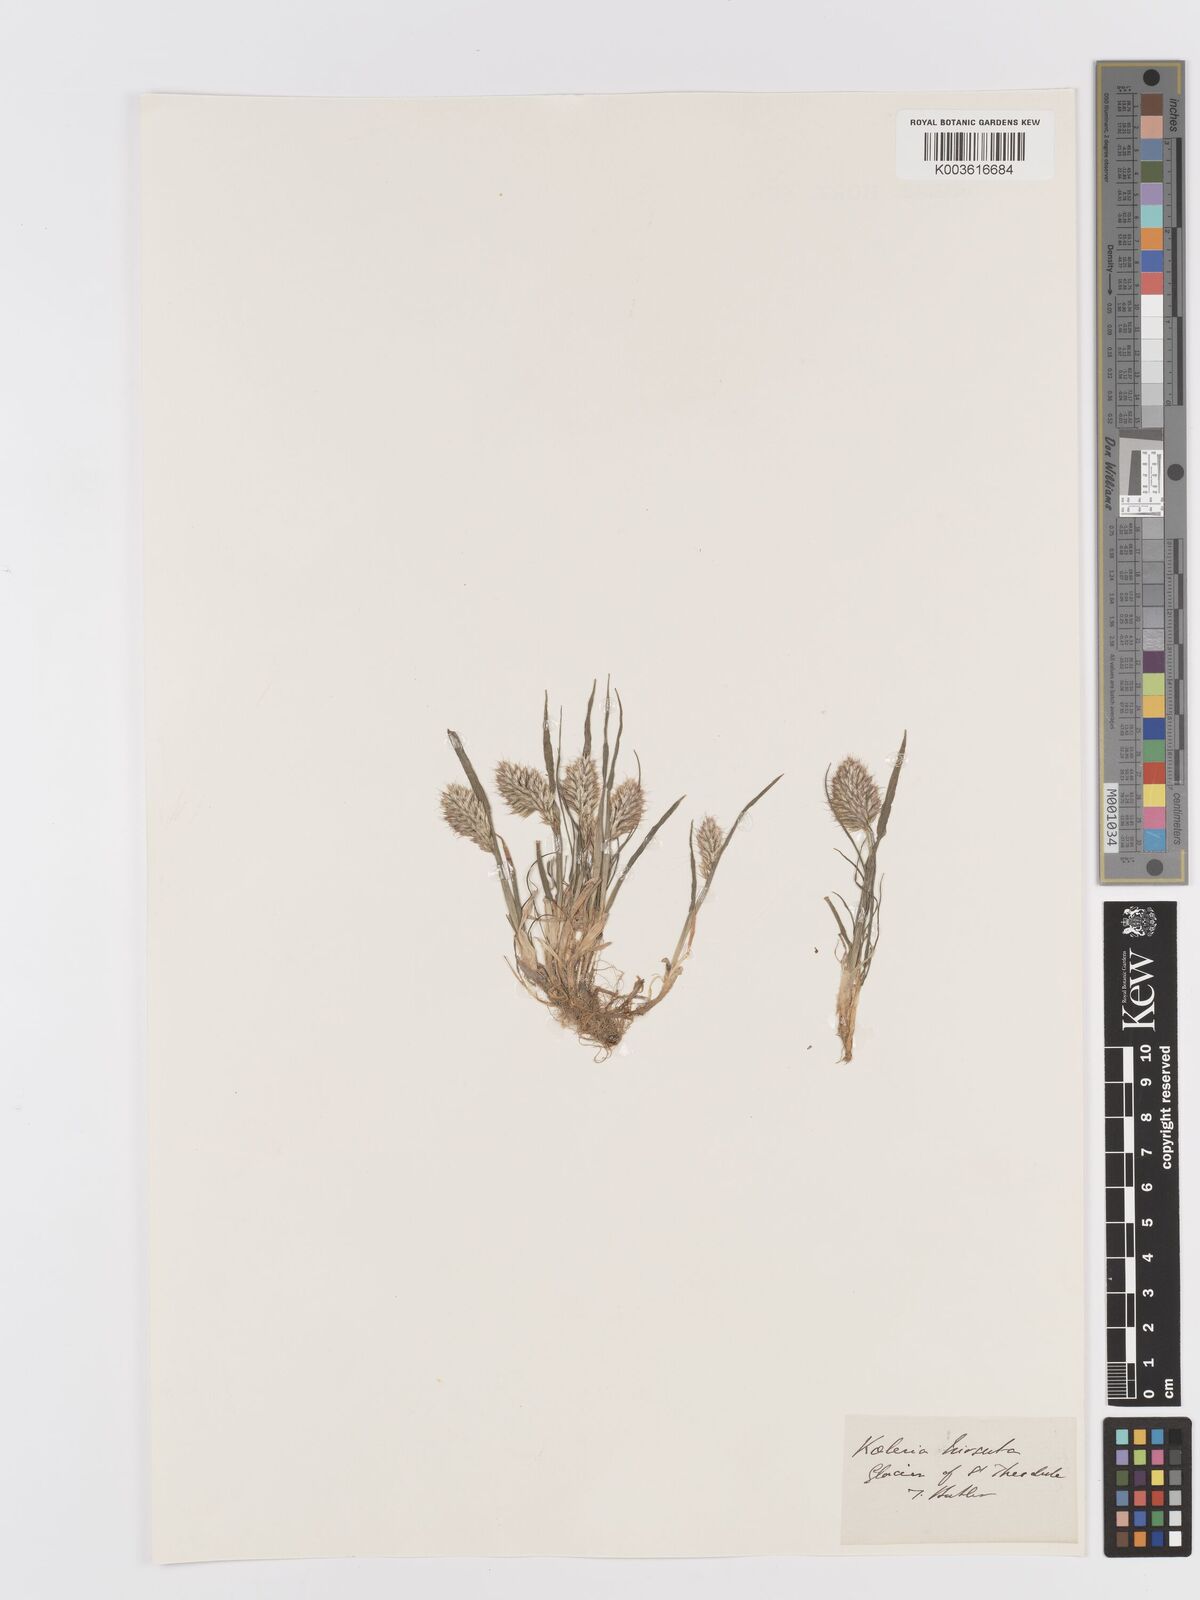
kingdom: Plantae
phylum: Tracheophyta
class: Liliopsida
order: Poales
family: Poaceae
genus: Koeleria
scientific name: Koeleria hirsuta
